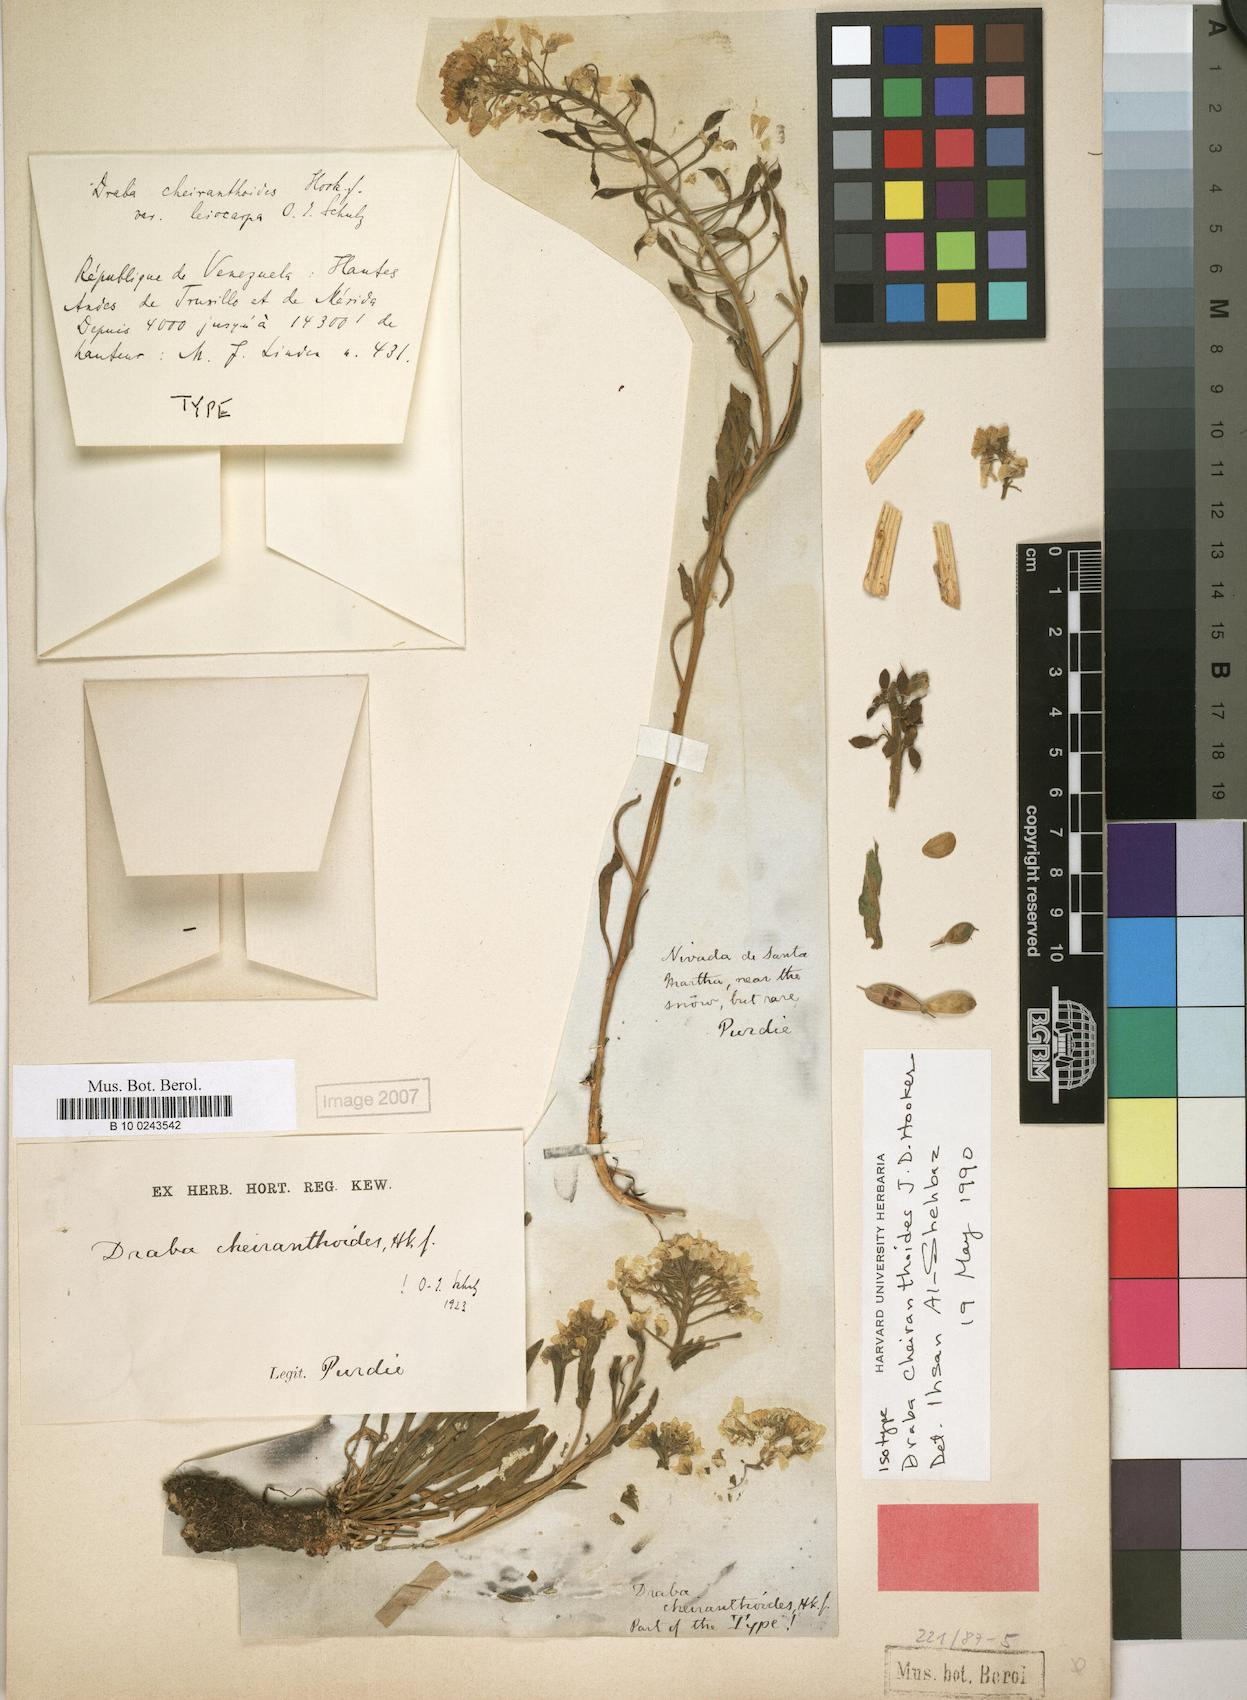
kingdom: Plantae
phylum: Tracheophyta
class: Magnoliopsida
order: Brassicales
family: Brassicaceae
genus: Draba
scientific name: Draba cheiranthoides
